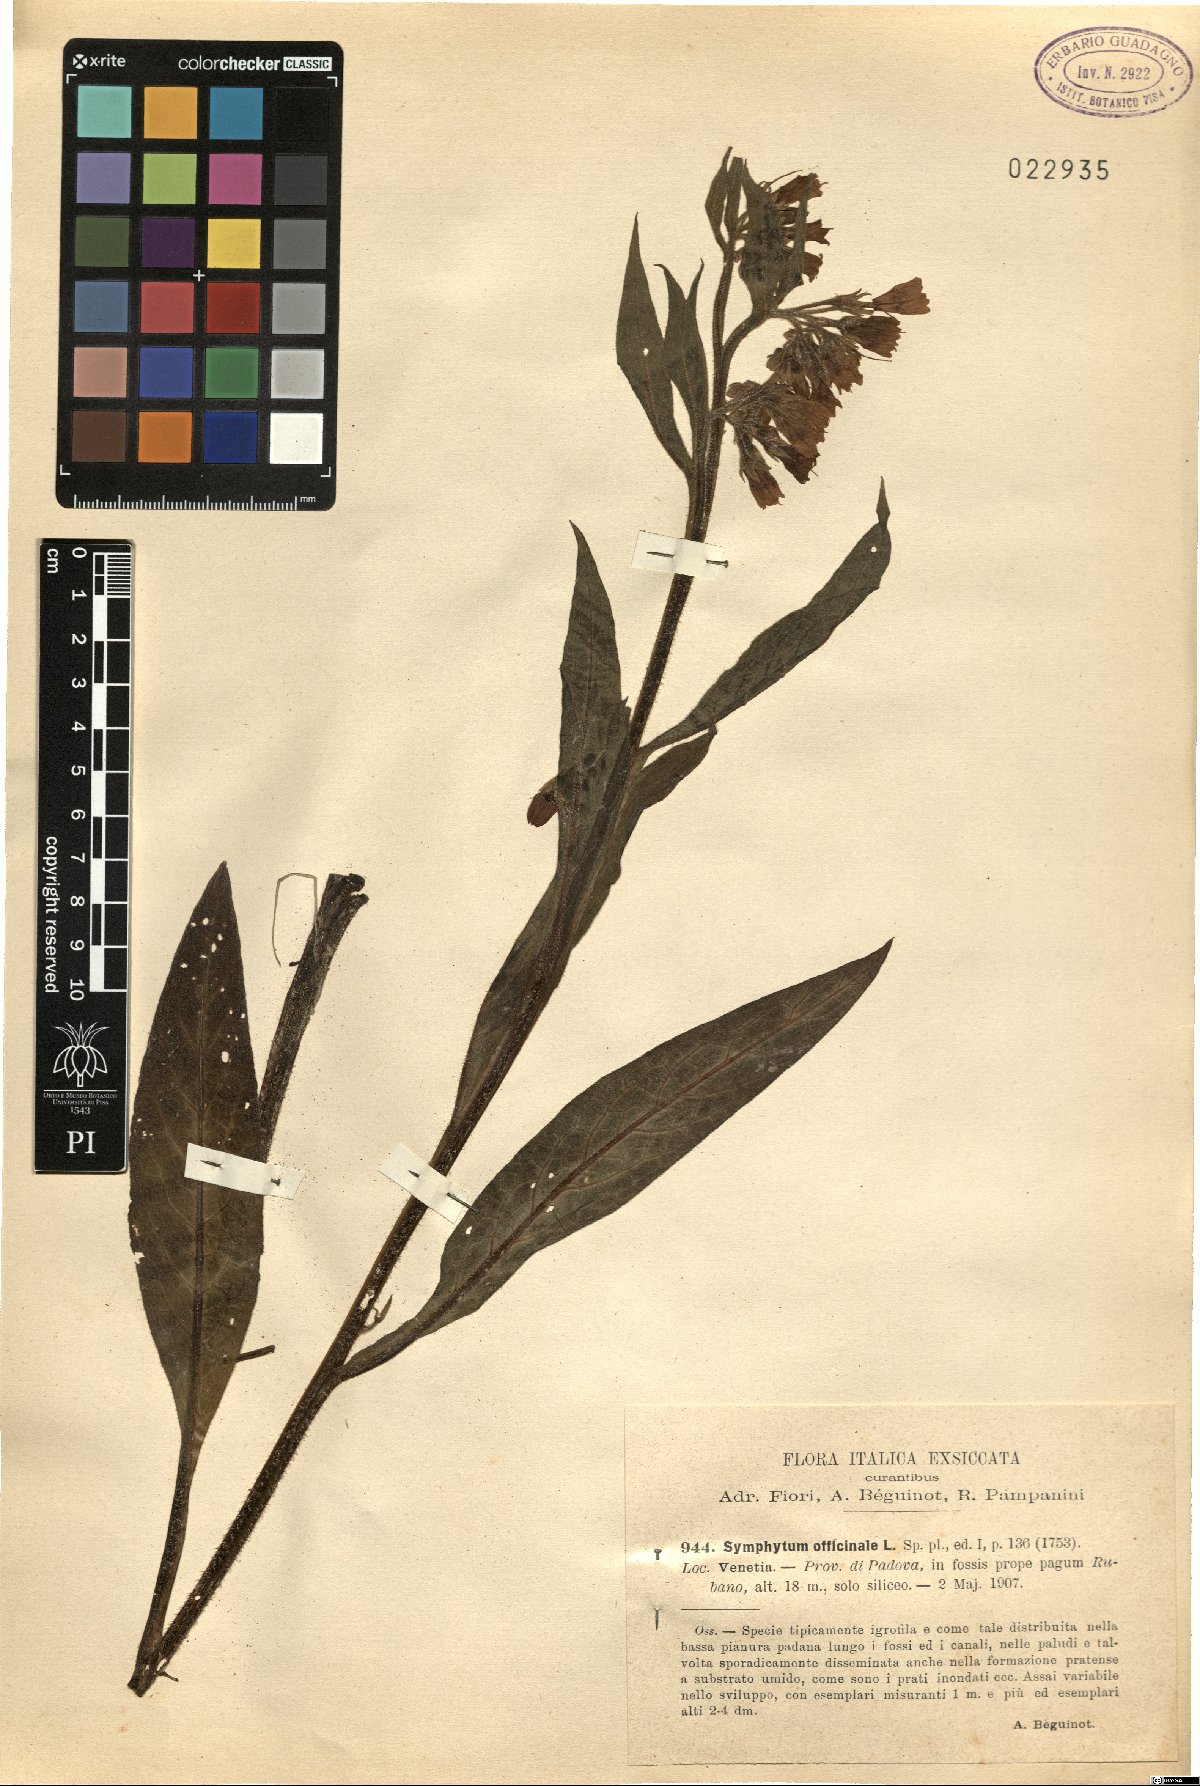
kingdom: Plantae
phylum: Tracheophyta
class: Magnoliopsida
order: Boraginales
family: Boraginaceae
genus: Symphytum
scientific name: Symphytum officinale
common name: Common comfrey
